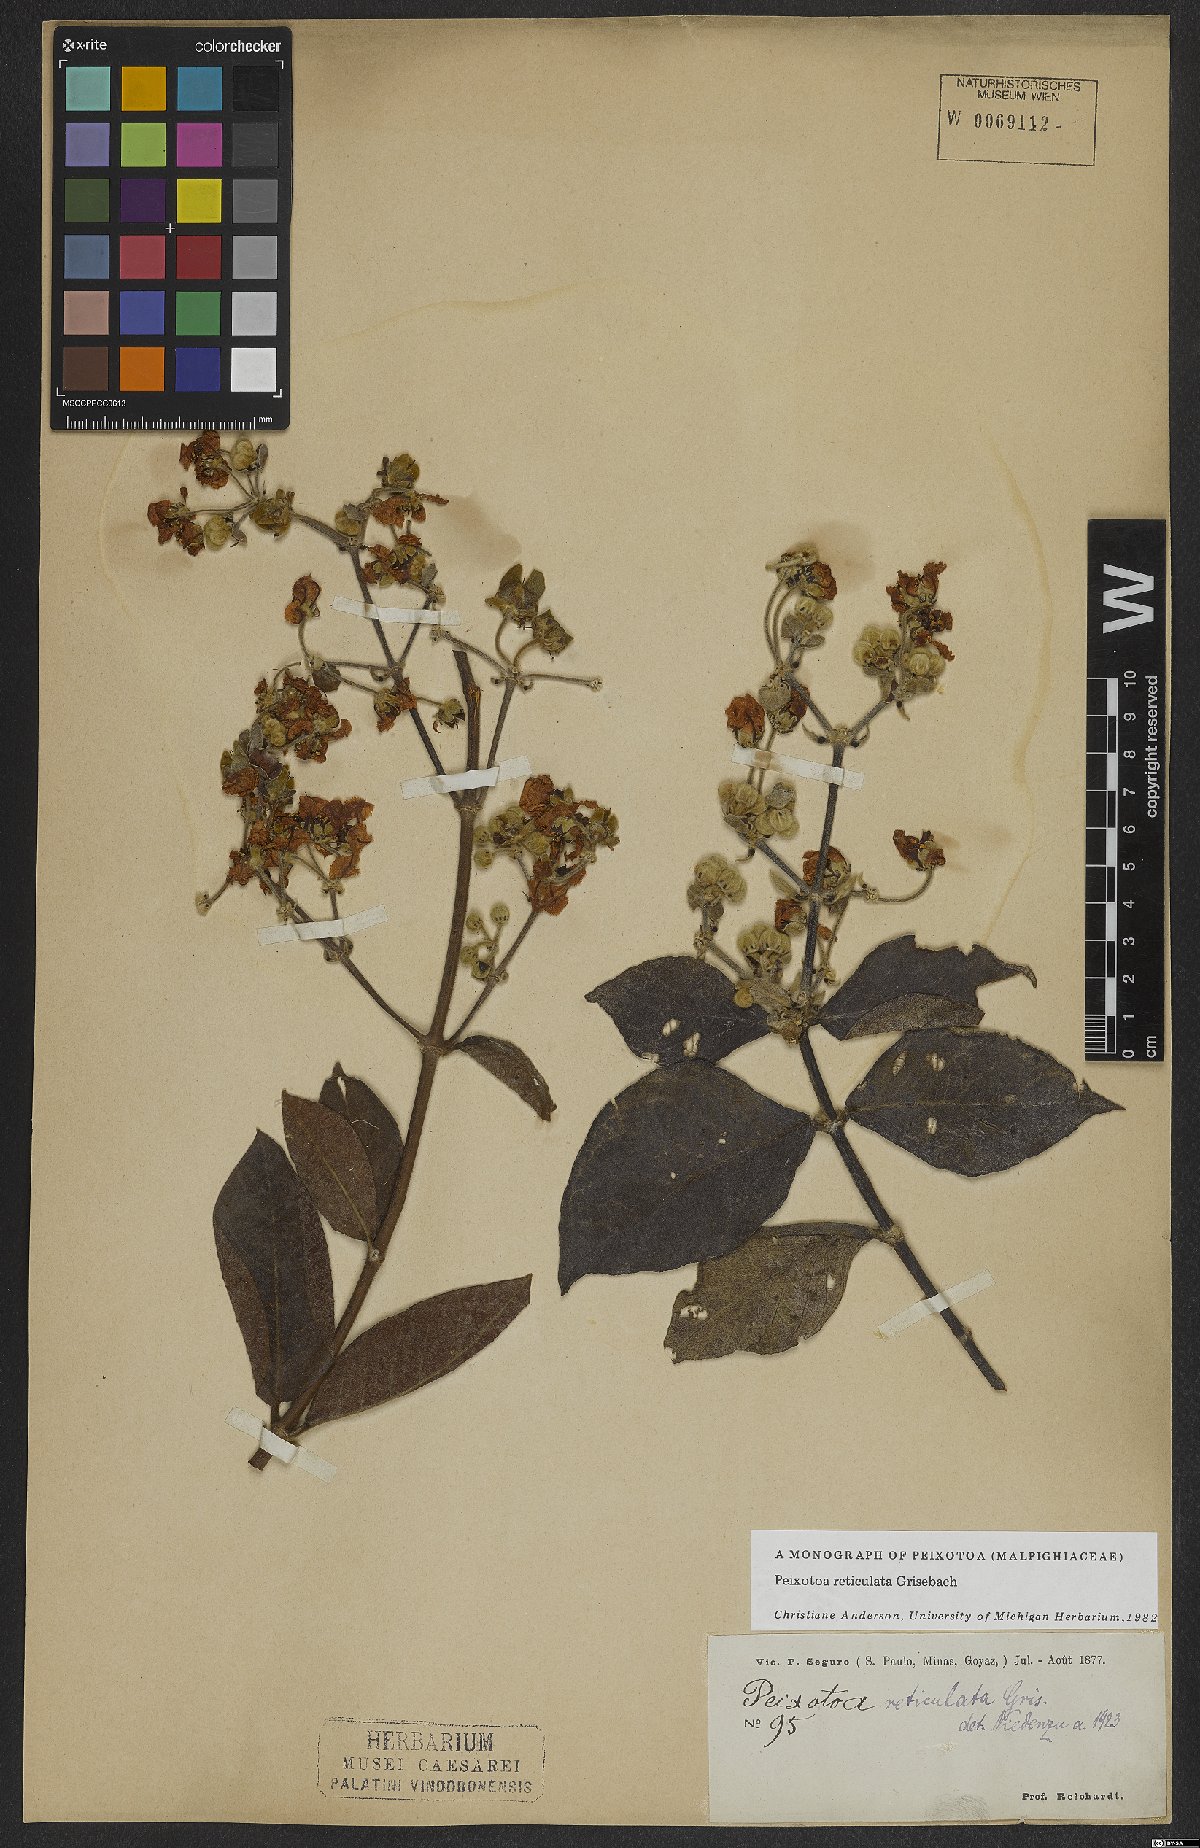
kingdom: Plantae
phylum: Tracheophyta
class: Magnoliopsida
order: Malpighiales
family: Malpighiaceae
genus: Peixotoa
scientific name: Peixotoa reticulata
